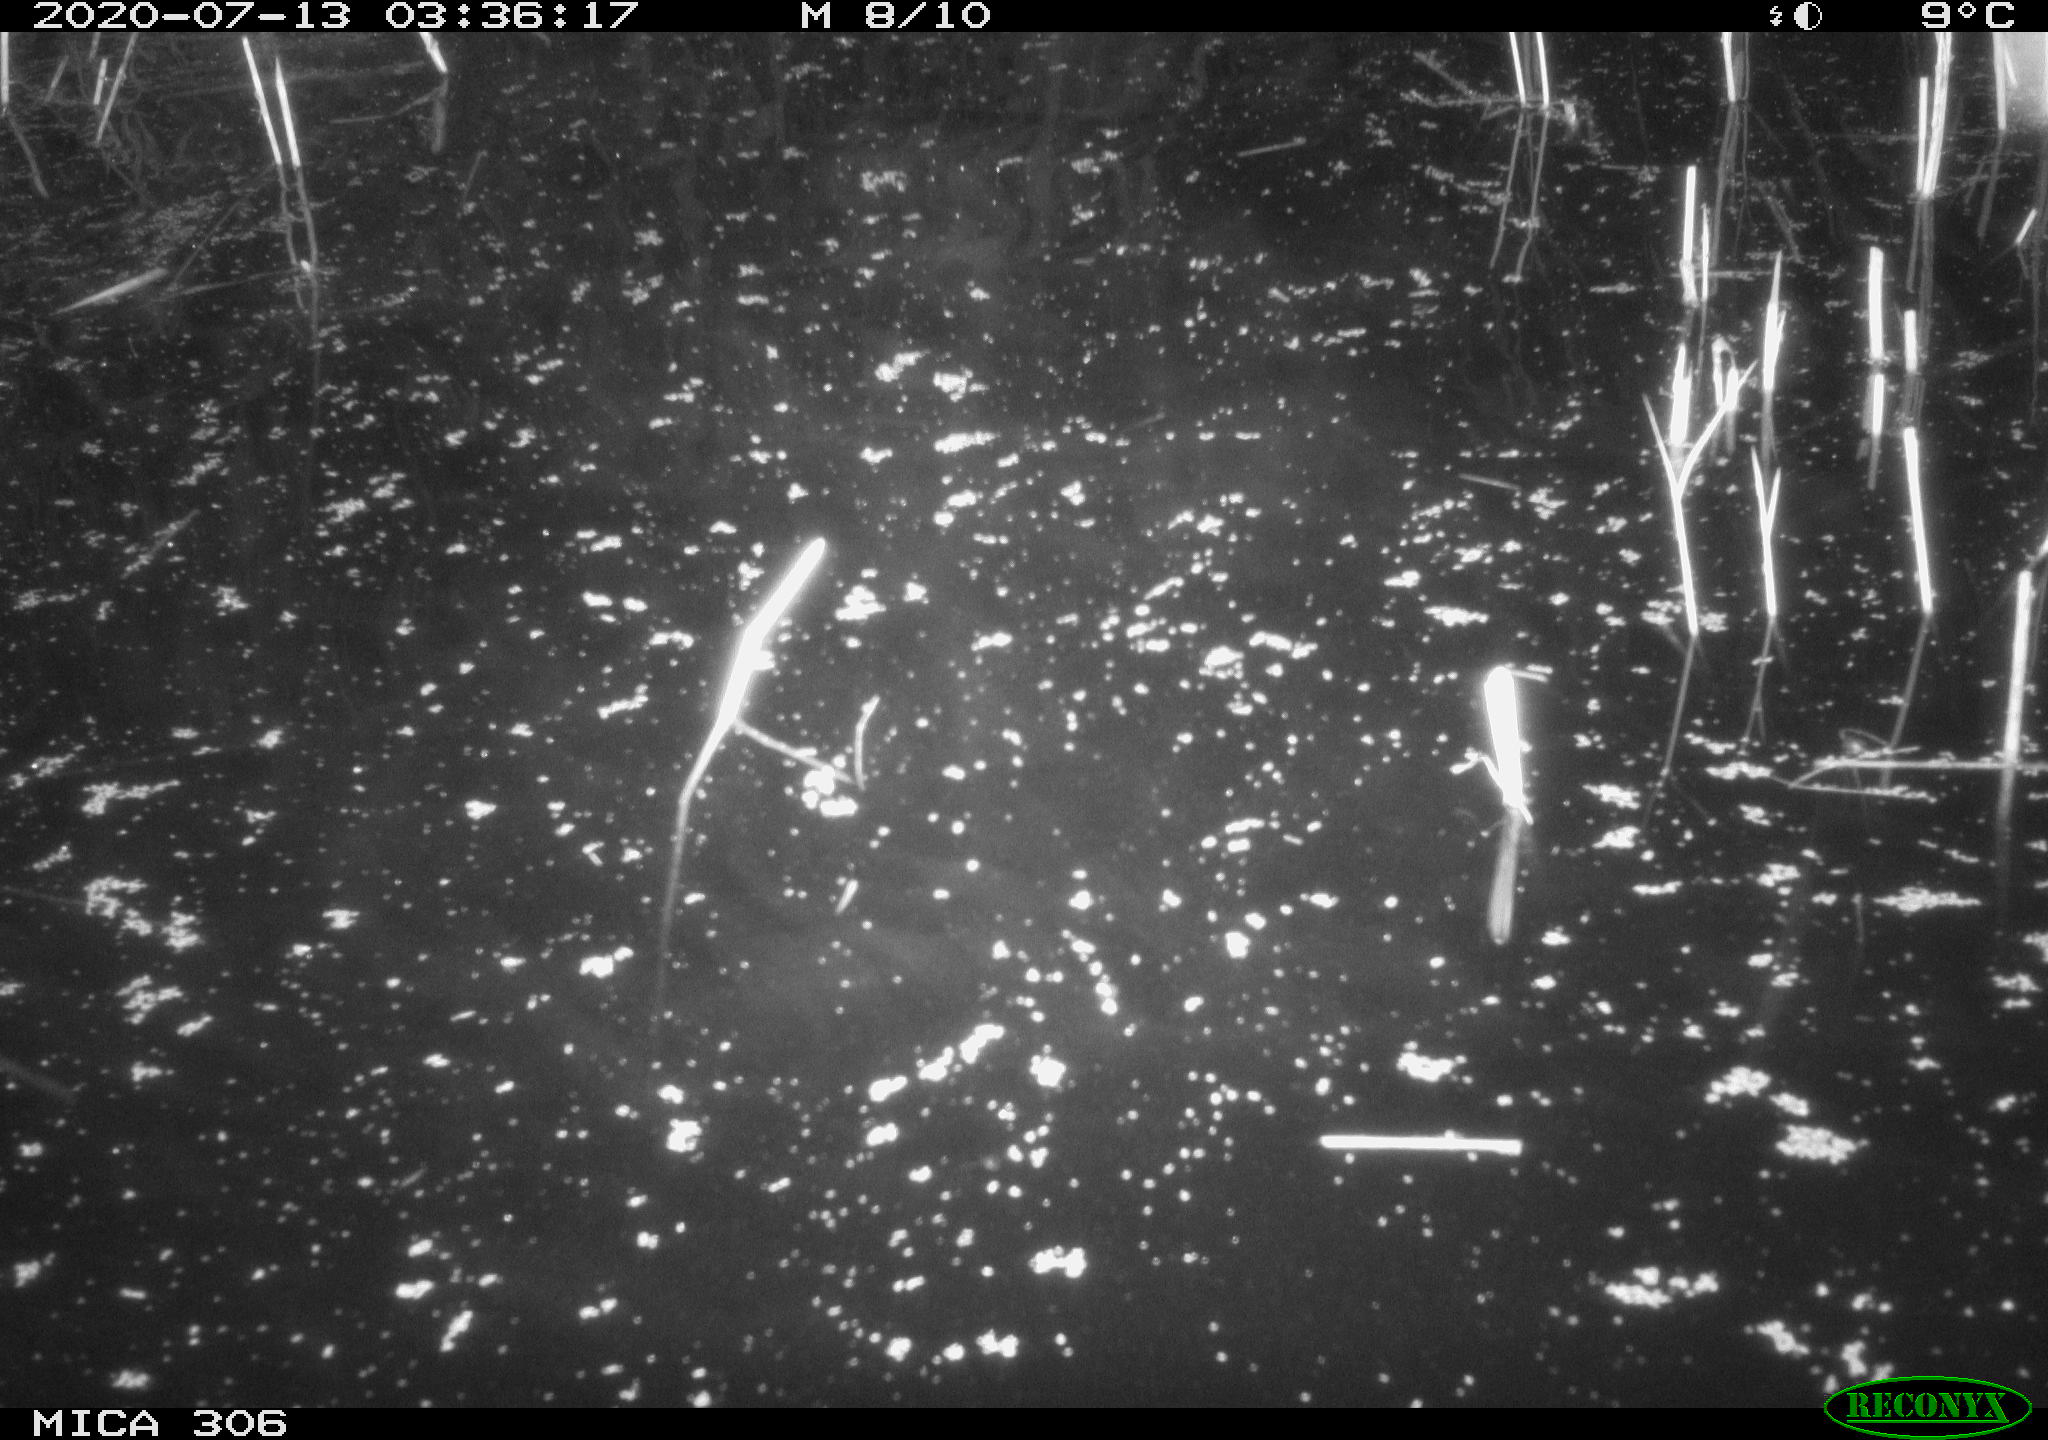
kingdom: Animalia
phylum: Chordata
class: Mammalia
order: Rodentia
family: Cricetidae
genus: Ondatra
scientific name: Ondatra zibethicus
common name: Muskrat
